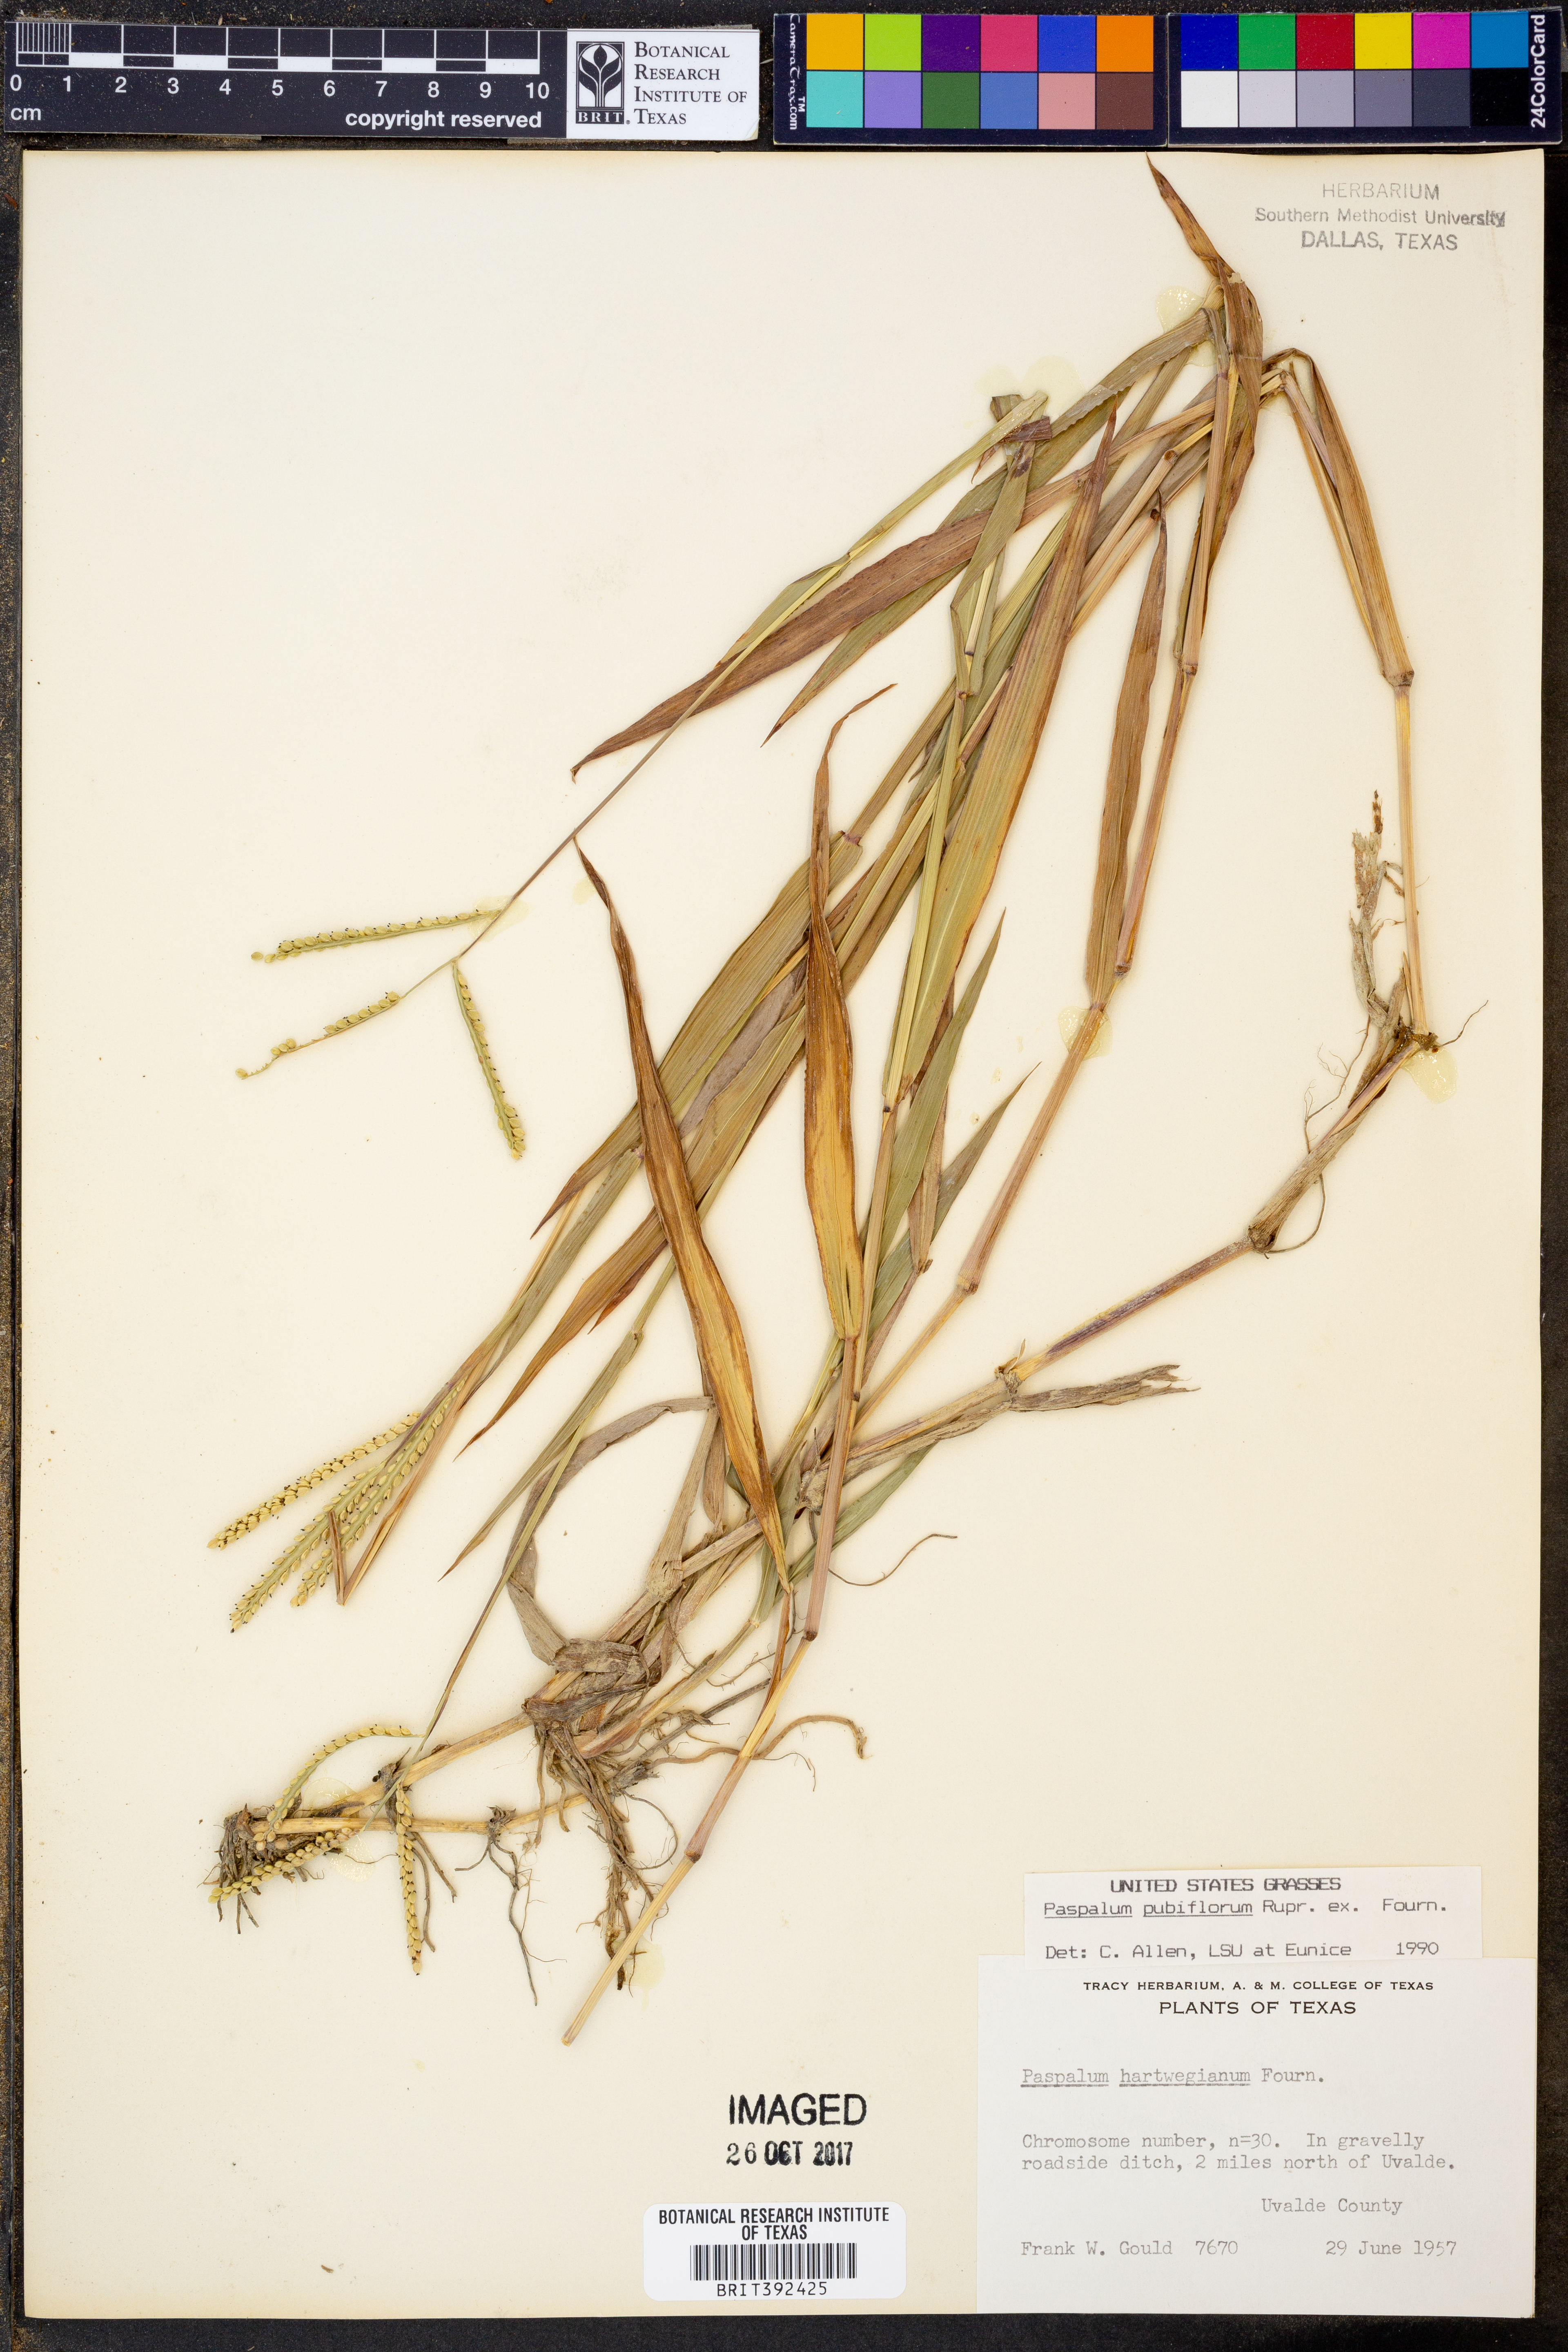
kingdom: Plantae
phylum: Tracheophyta
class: Liliopsida
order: Poales
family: Poaceae
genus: Paspalum
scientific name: Paspalum pubiflorum
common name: Hairy-seed paspalum
